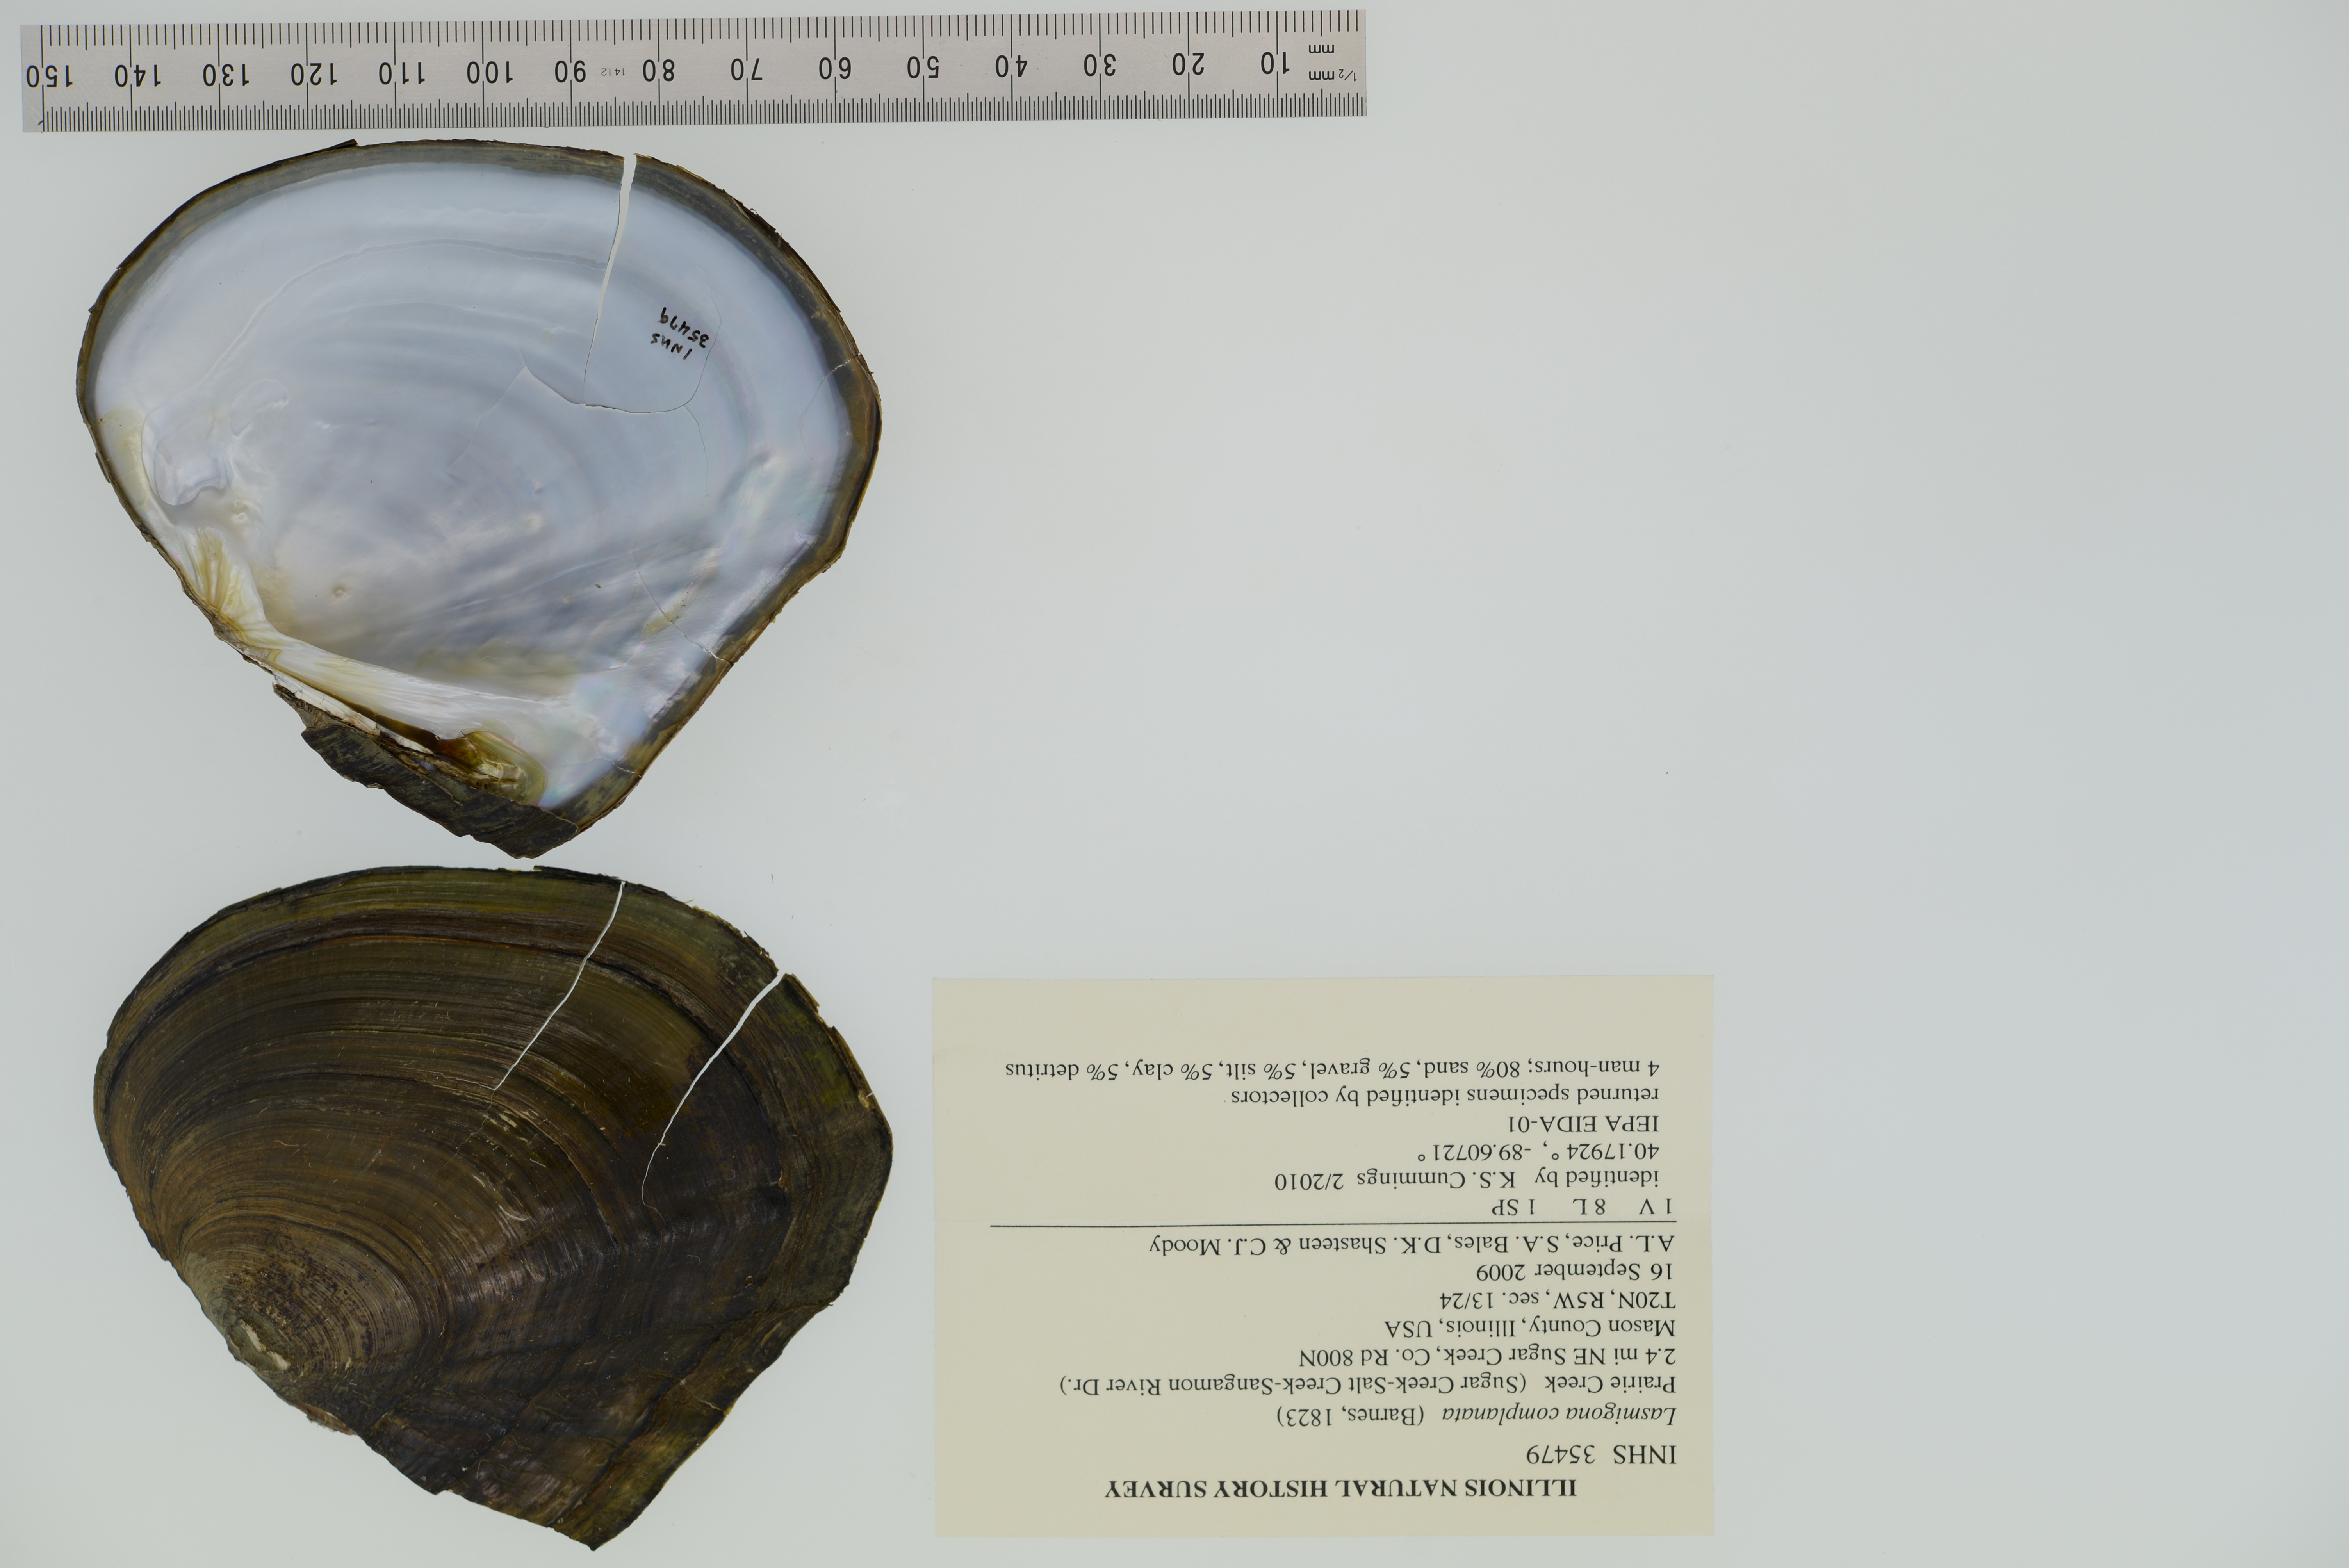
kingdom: Animalia
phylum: Mollusca
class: Bivalvia
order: Unionida
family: Unionidae
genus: Lasmigona
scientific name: Lasmigona complanata
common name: White heelsplitter
